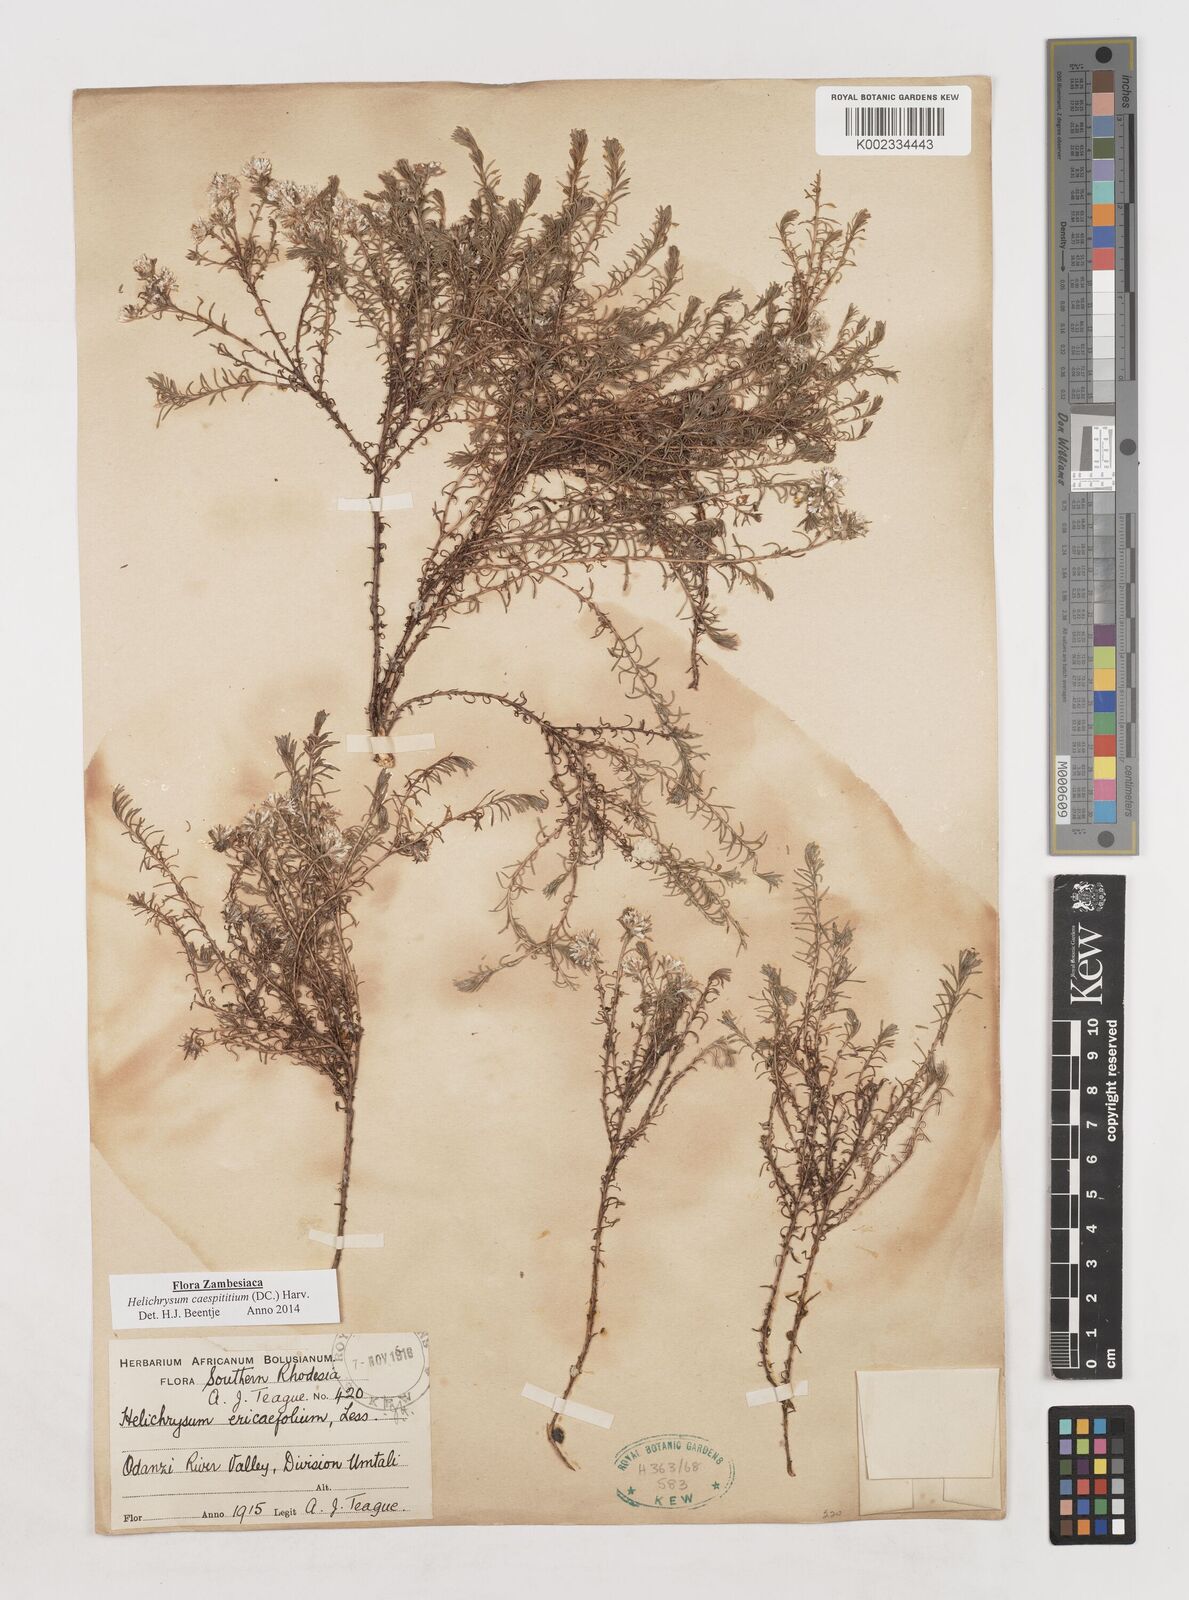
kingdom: Plantae
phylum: Tracheophyta
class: Magnoliopsida
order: Asterales
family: Asteraceae
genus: Helichrysum
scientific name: Helichrysum caespititium
